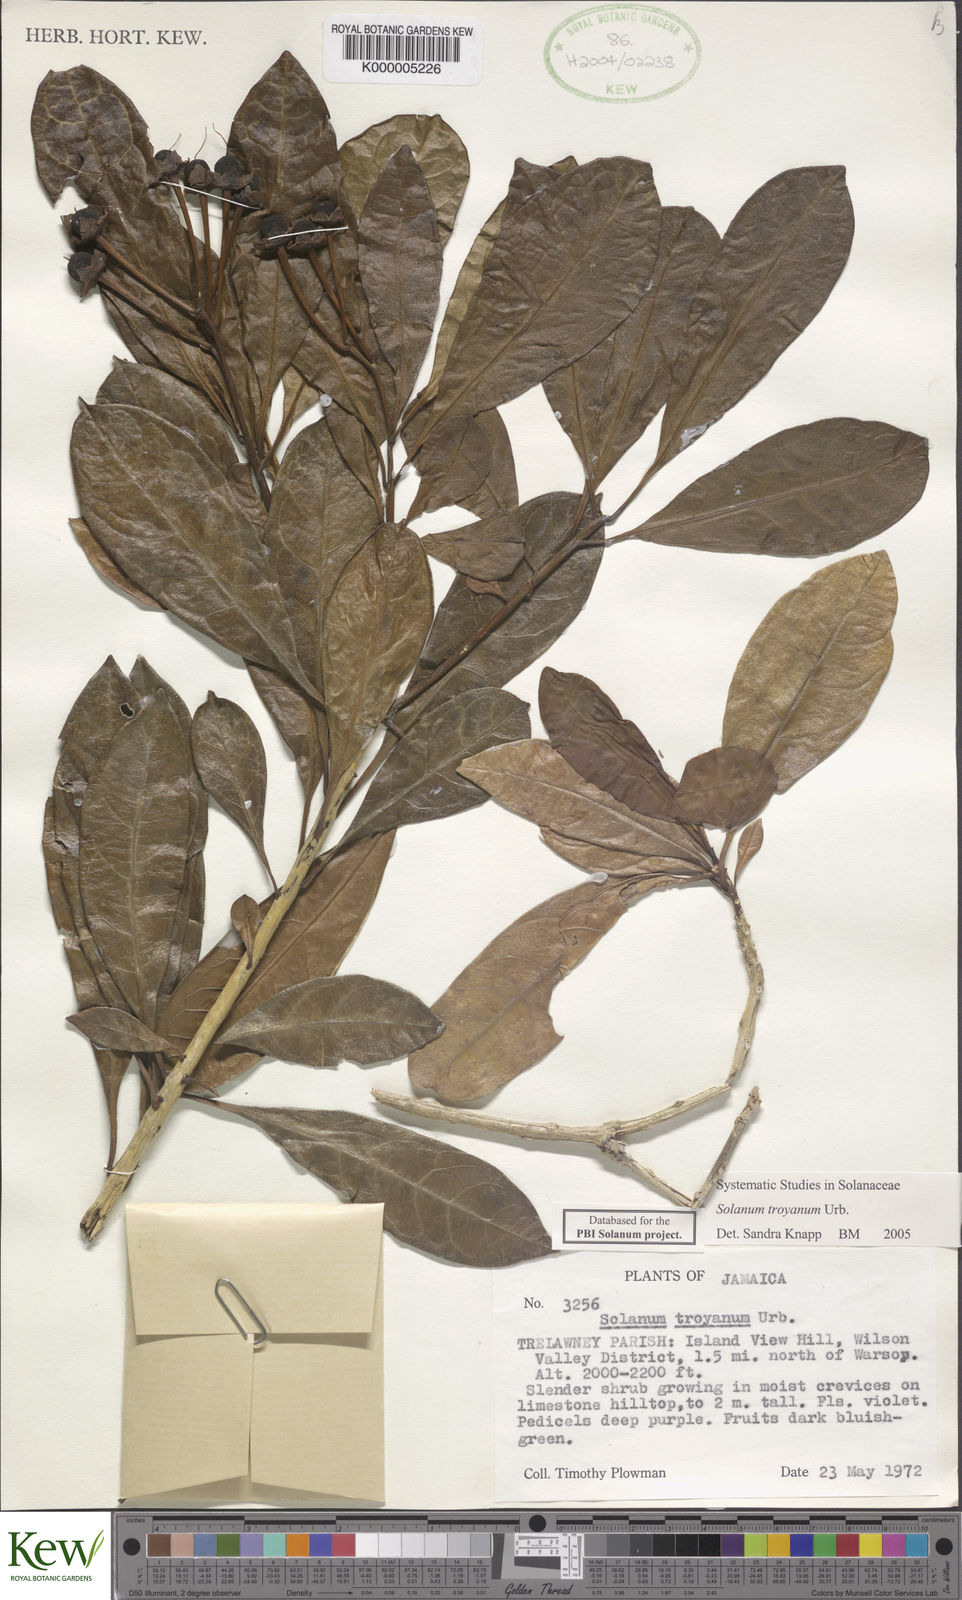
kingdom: Plantae
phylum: Tracheophyta
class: Magnoliopsida
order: Solanales
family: Solanaceae
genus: Solanum
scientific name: Solanum troyanum
